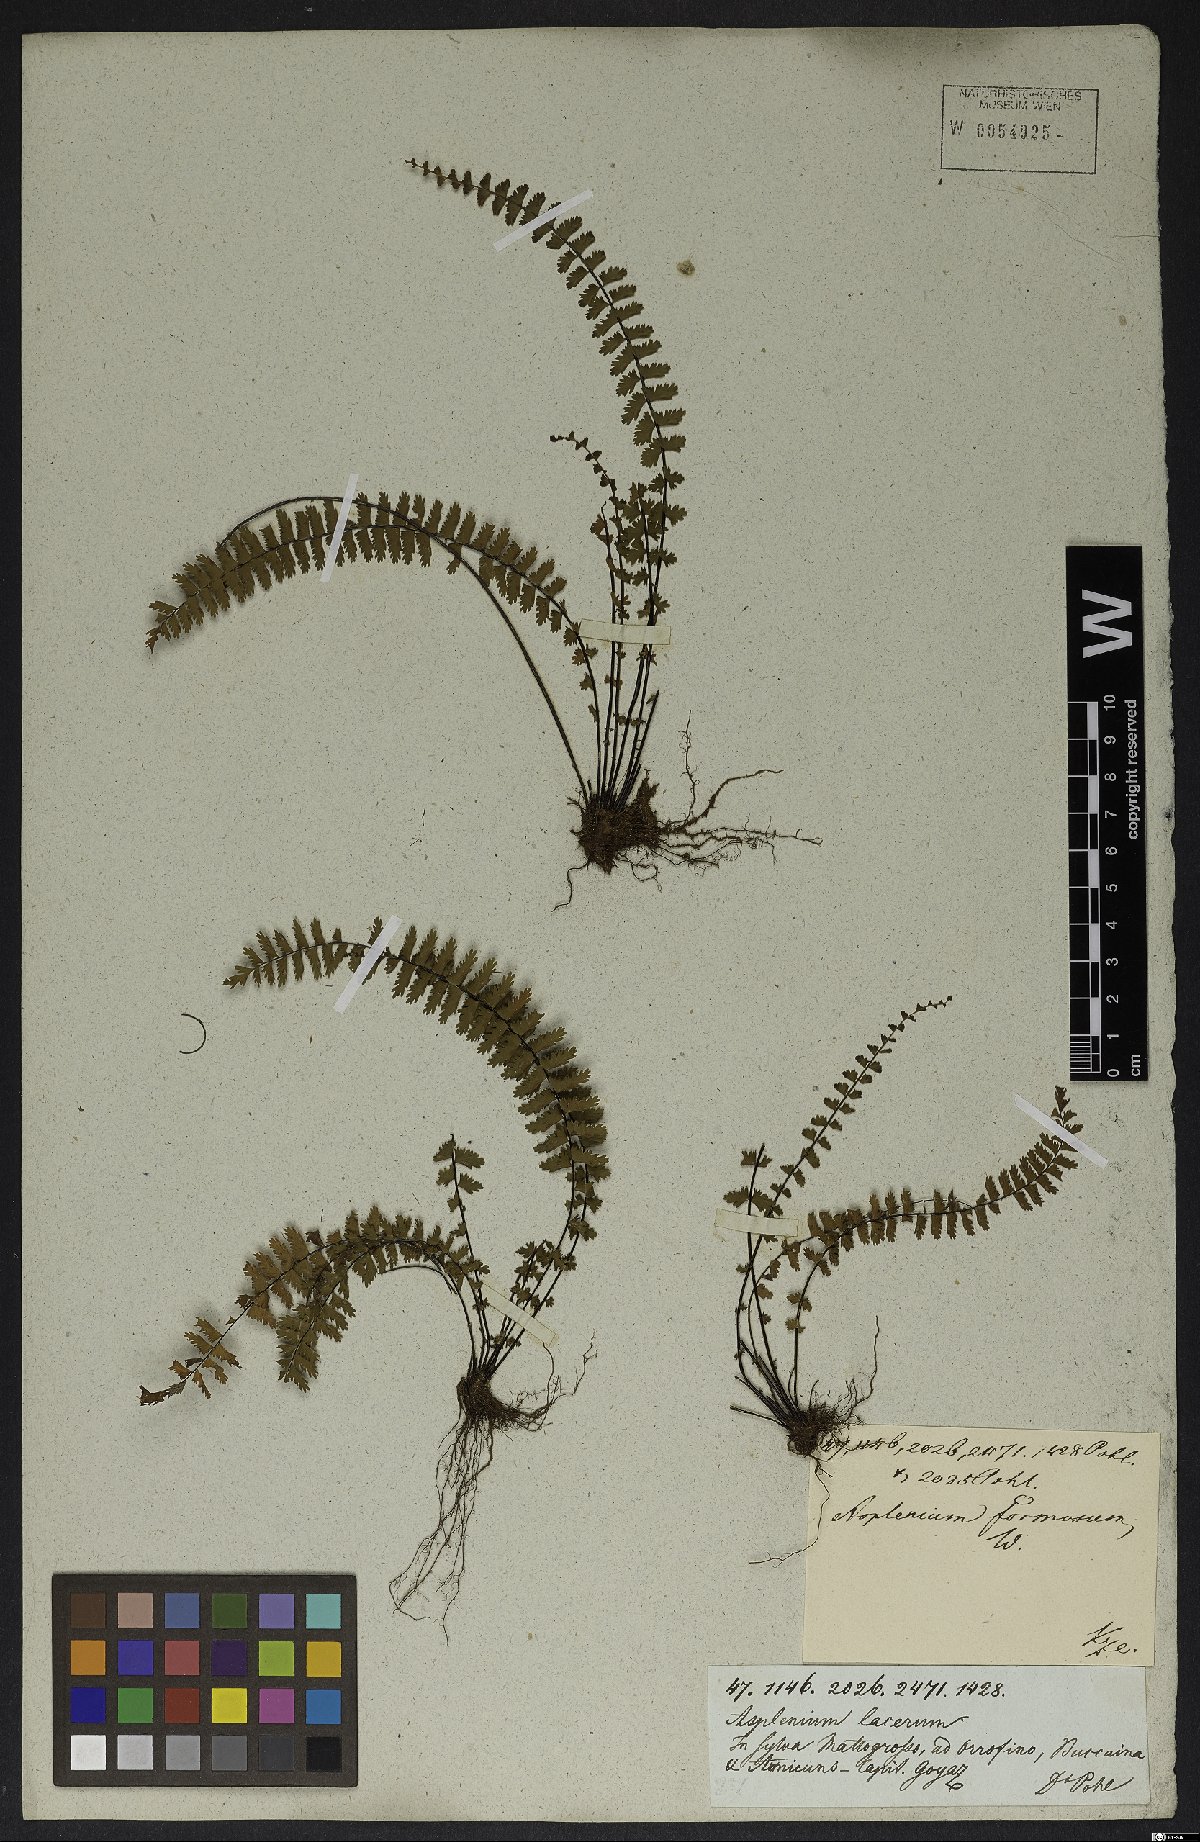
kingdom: Plantae
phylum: Tracheophyta
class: Polypodiopsida
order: Polypodiales
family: Aspleniaceae
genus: Asplenium
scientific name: Asplenium formosum
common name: Showy spleenwort
